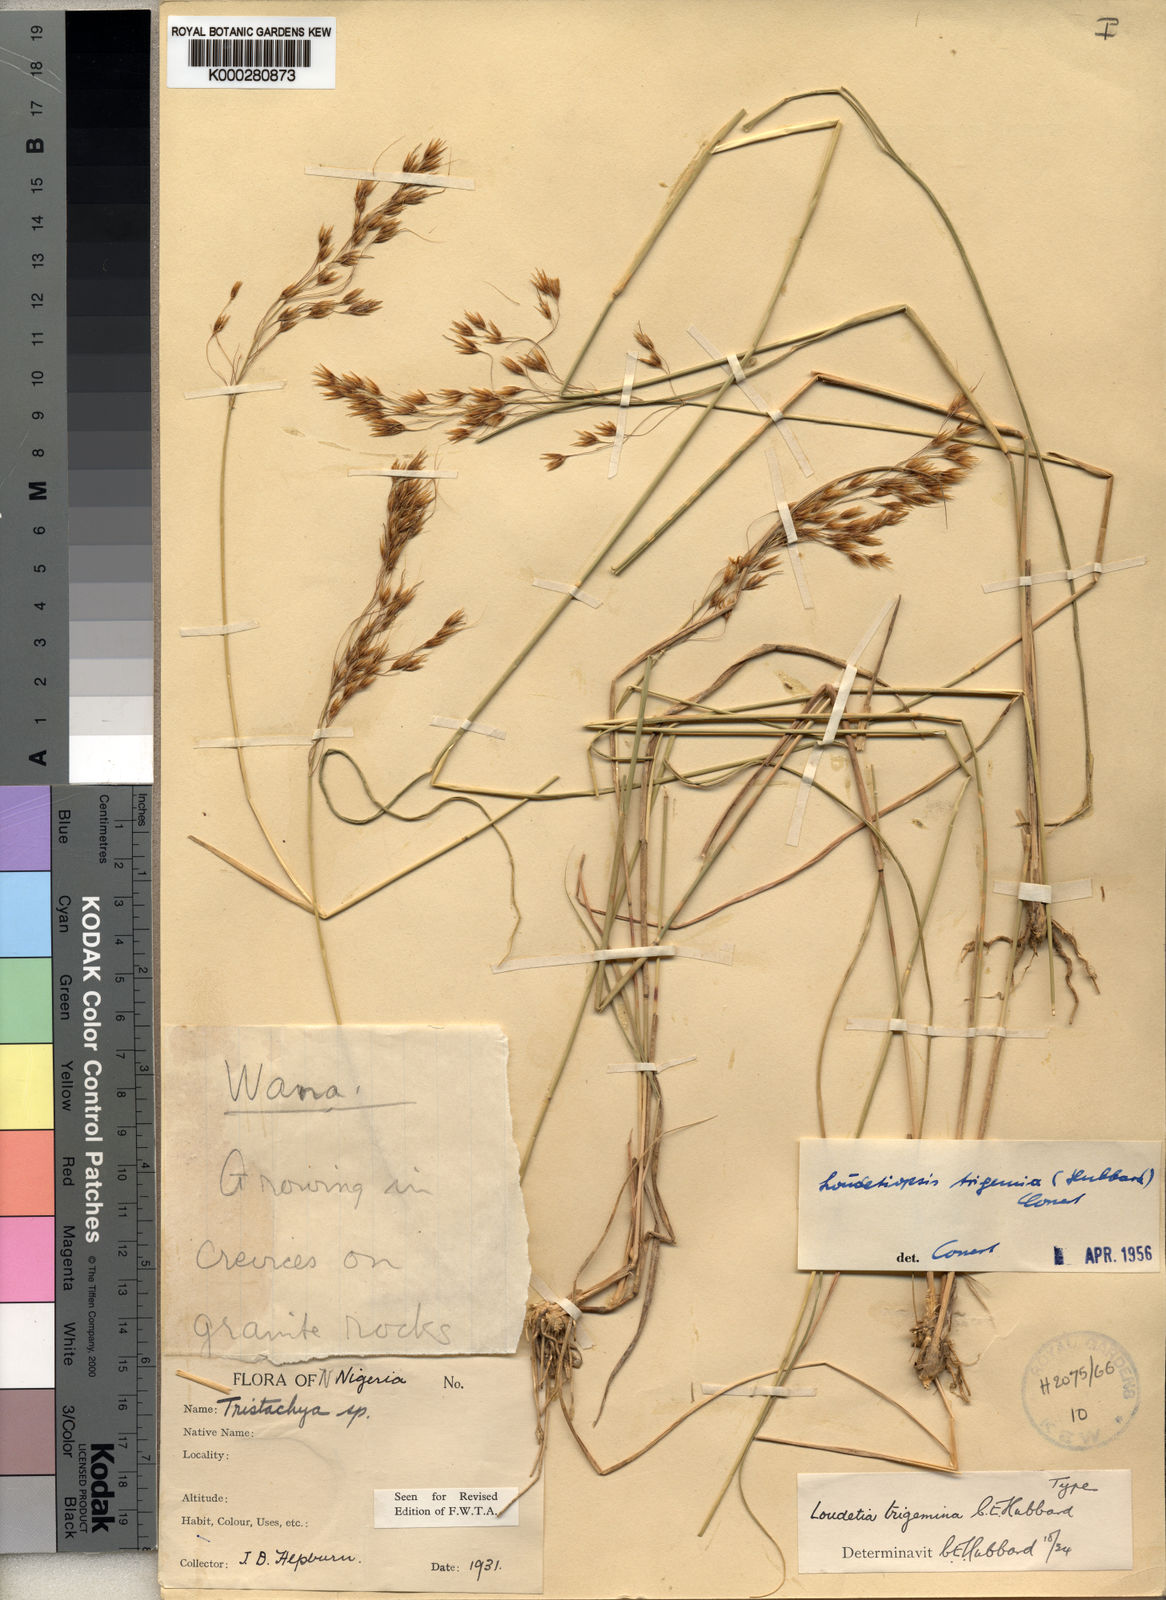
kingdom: Plantae
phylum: Tracheophyta
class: Liliopsida
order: Poales
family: Poaceae
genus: Loudetiopsis
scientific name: Loudetiopsis
